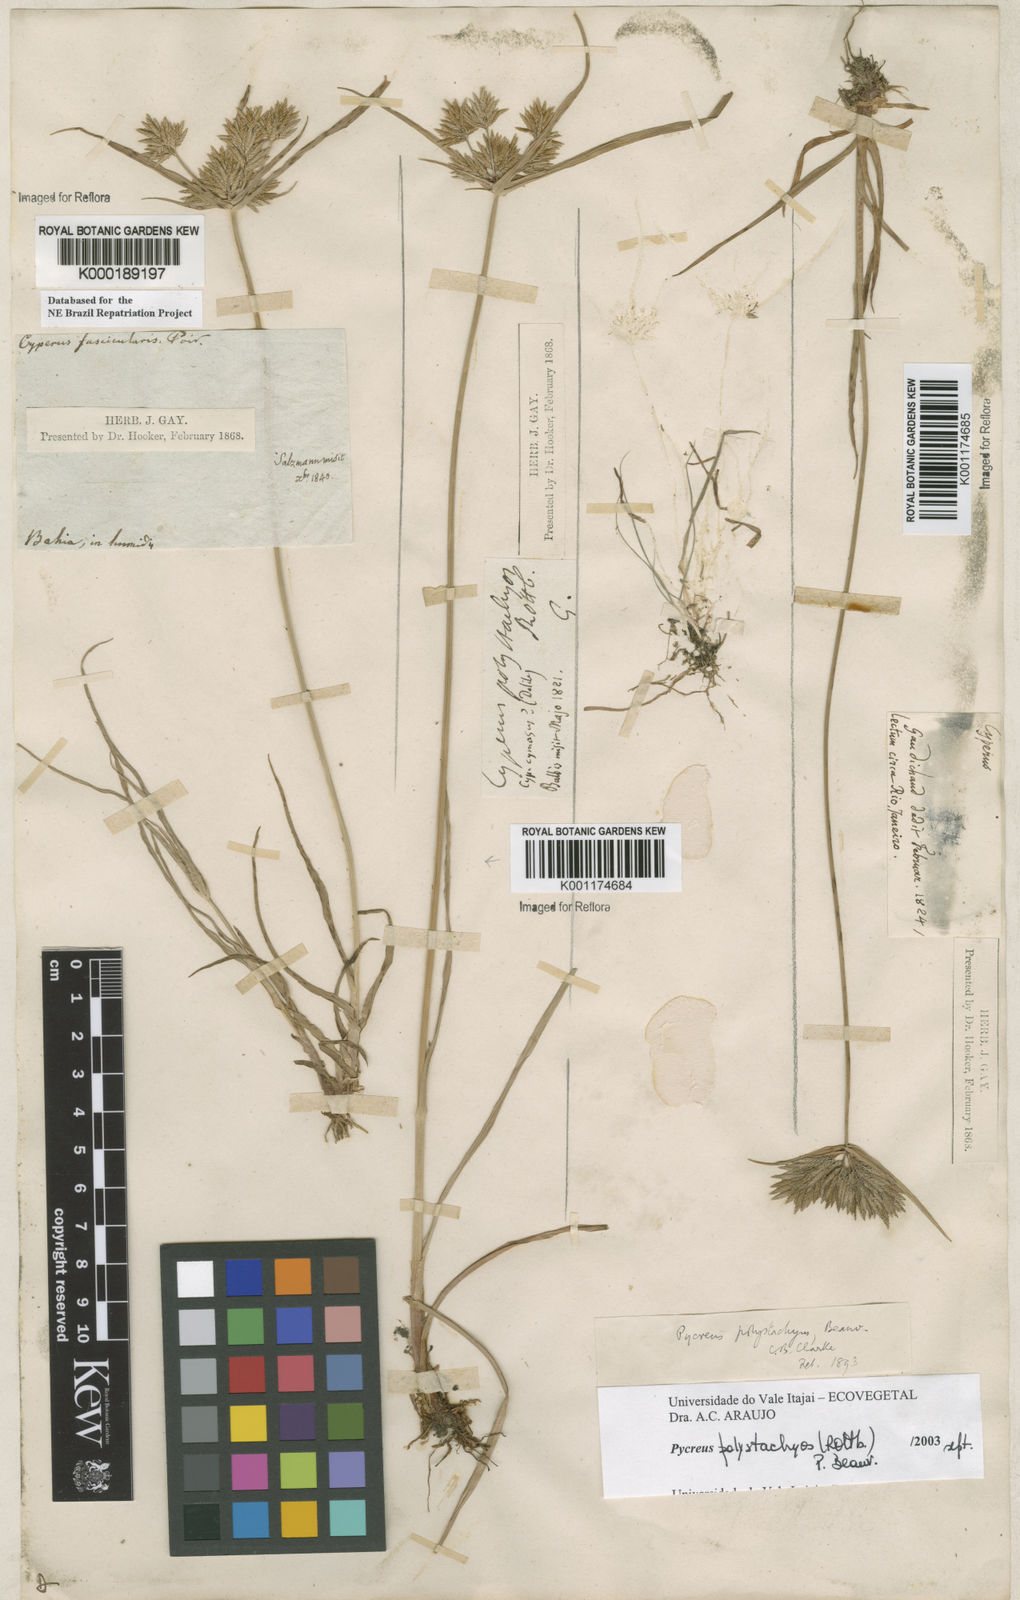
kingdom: Plantae
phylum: Tracheophyta
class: Liliopsida
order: Poales
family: Cyperaceae
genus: Cyperus
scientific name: Cyperus polystachyos
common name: Bunchy flat sedge
